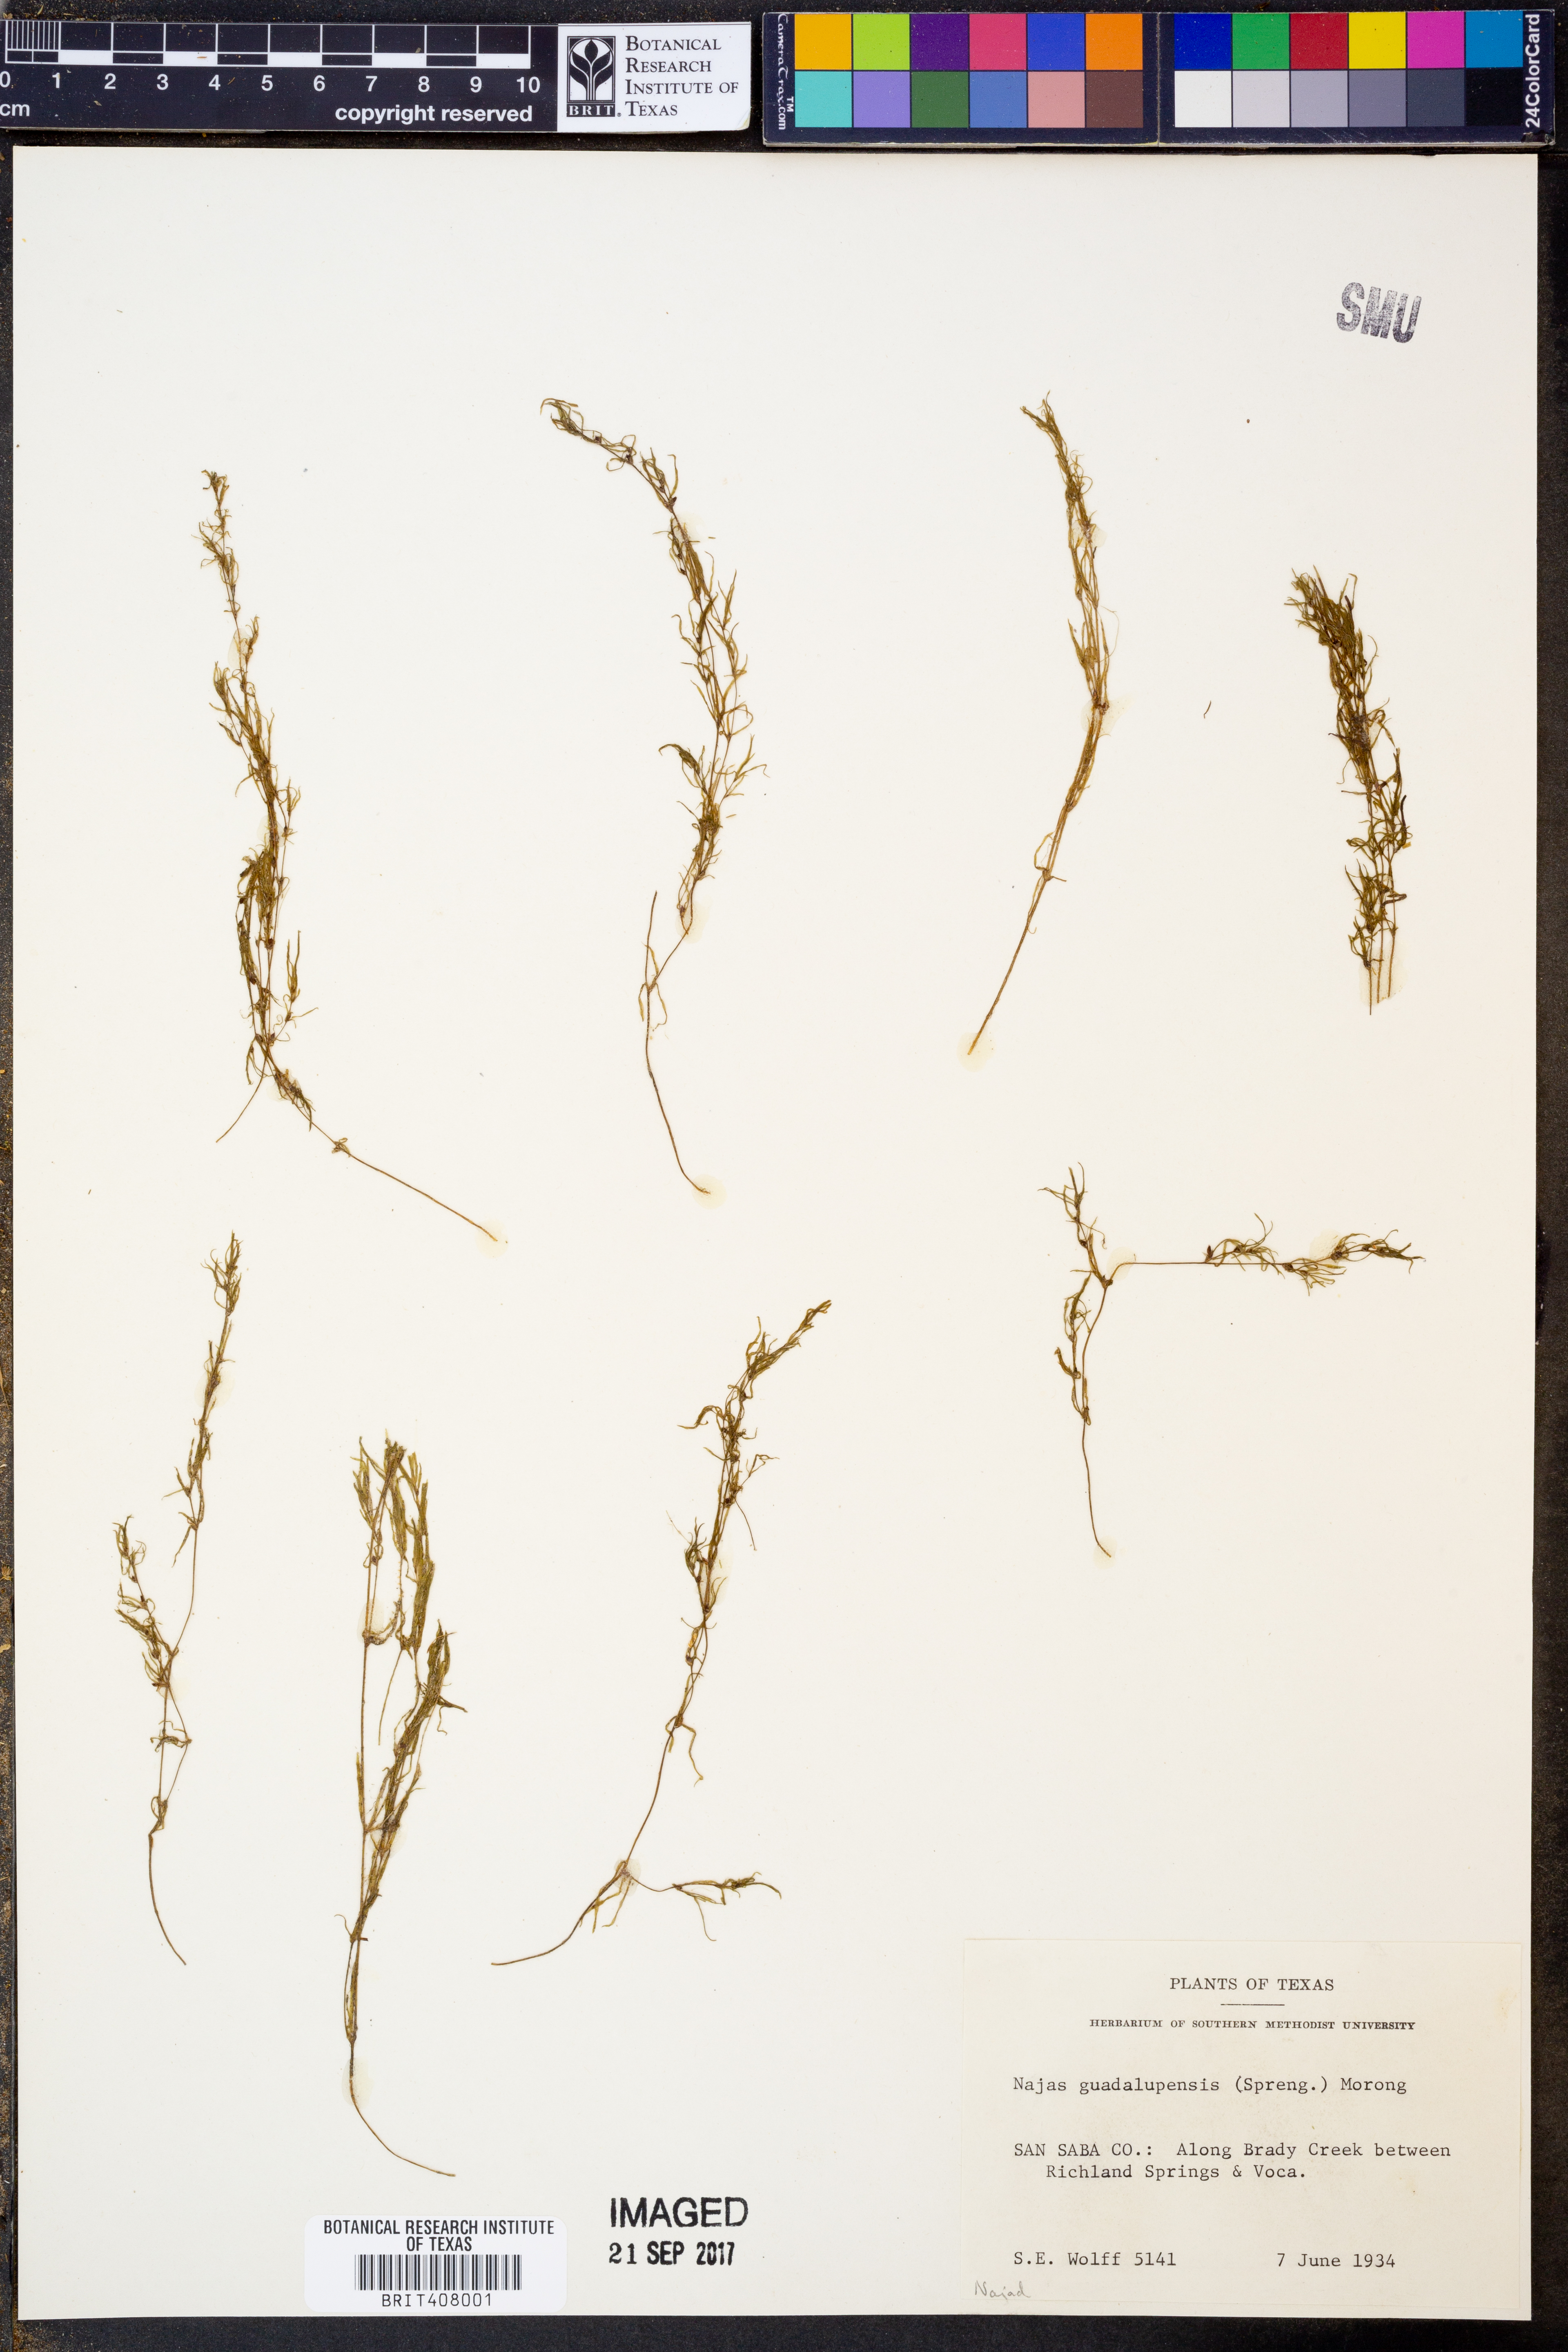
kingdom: Plantae
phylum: Tracheophyta
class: Liliopsida
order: Alismatales
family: Hydrocharitaceae
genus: Najas
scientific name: Najas guadalupensis
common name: Southern naiad
